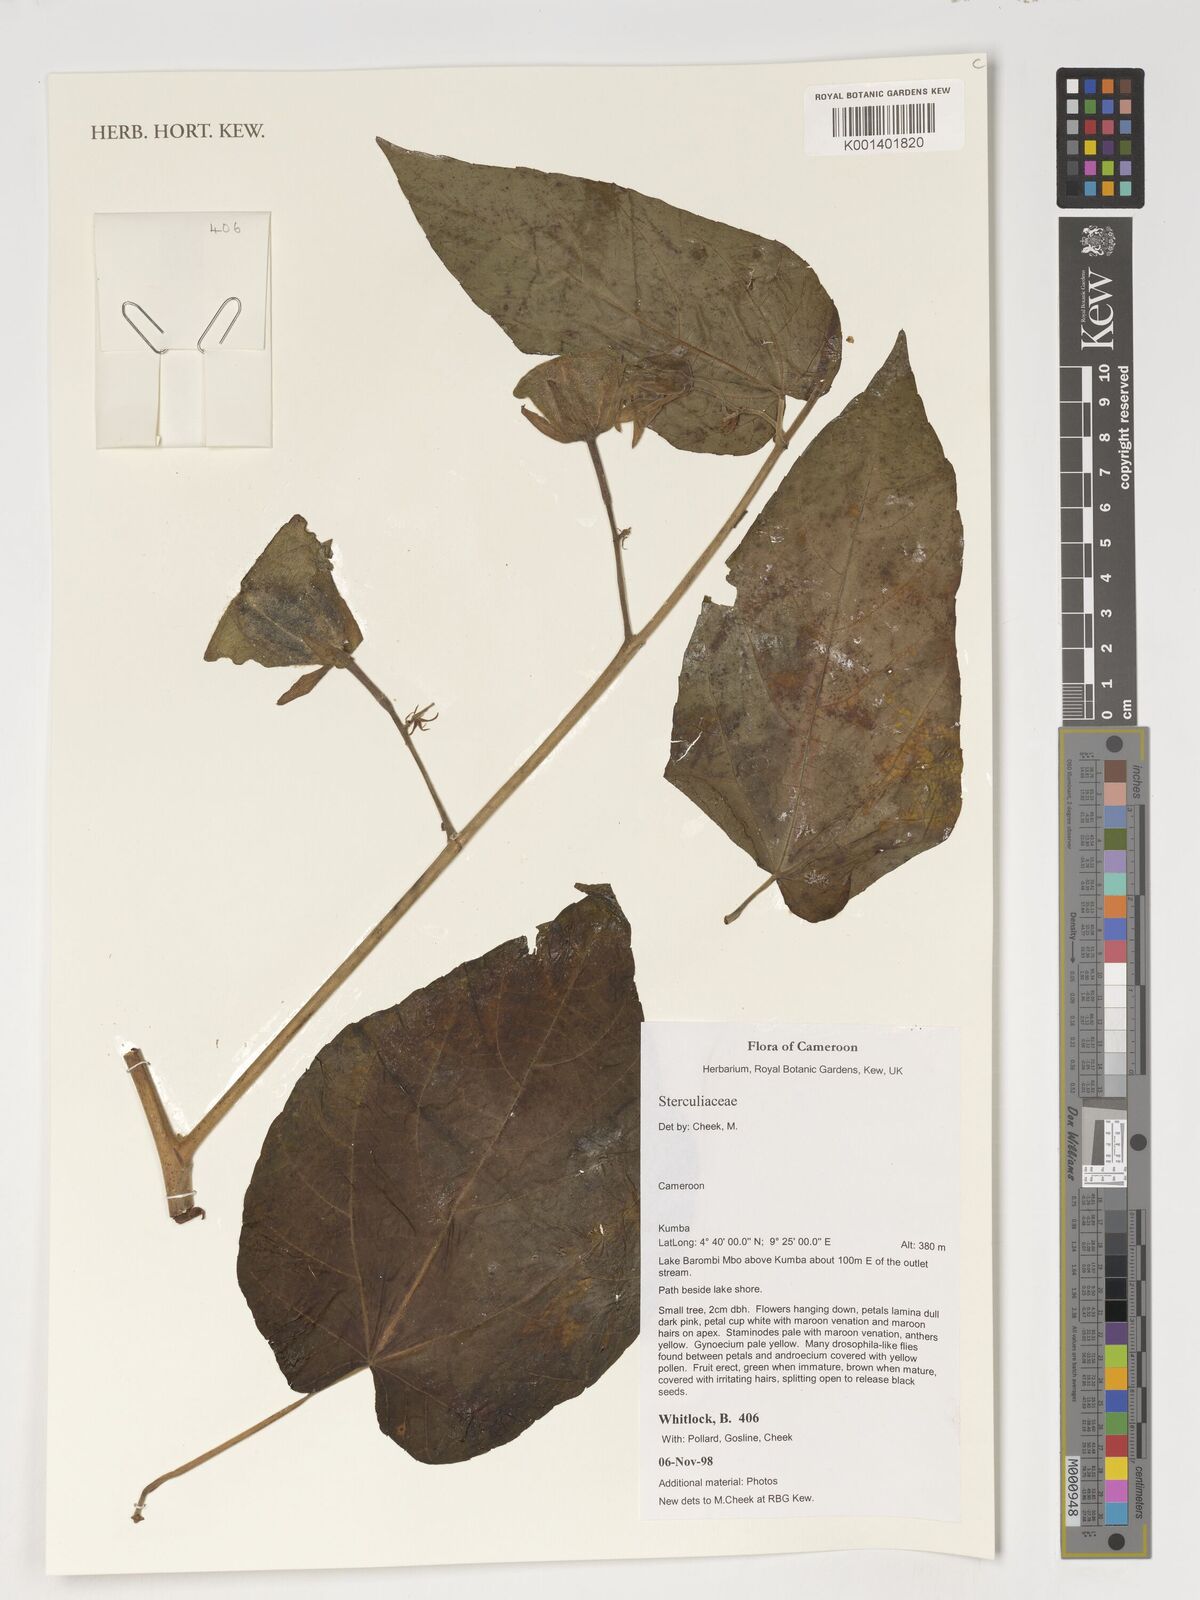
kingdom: Plantae
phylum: Tracheophyta
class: Magnoliopsida
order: Malvales
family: Sterculiaceae
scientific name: Sterculiaceae
